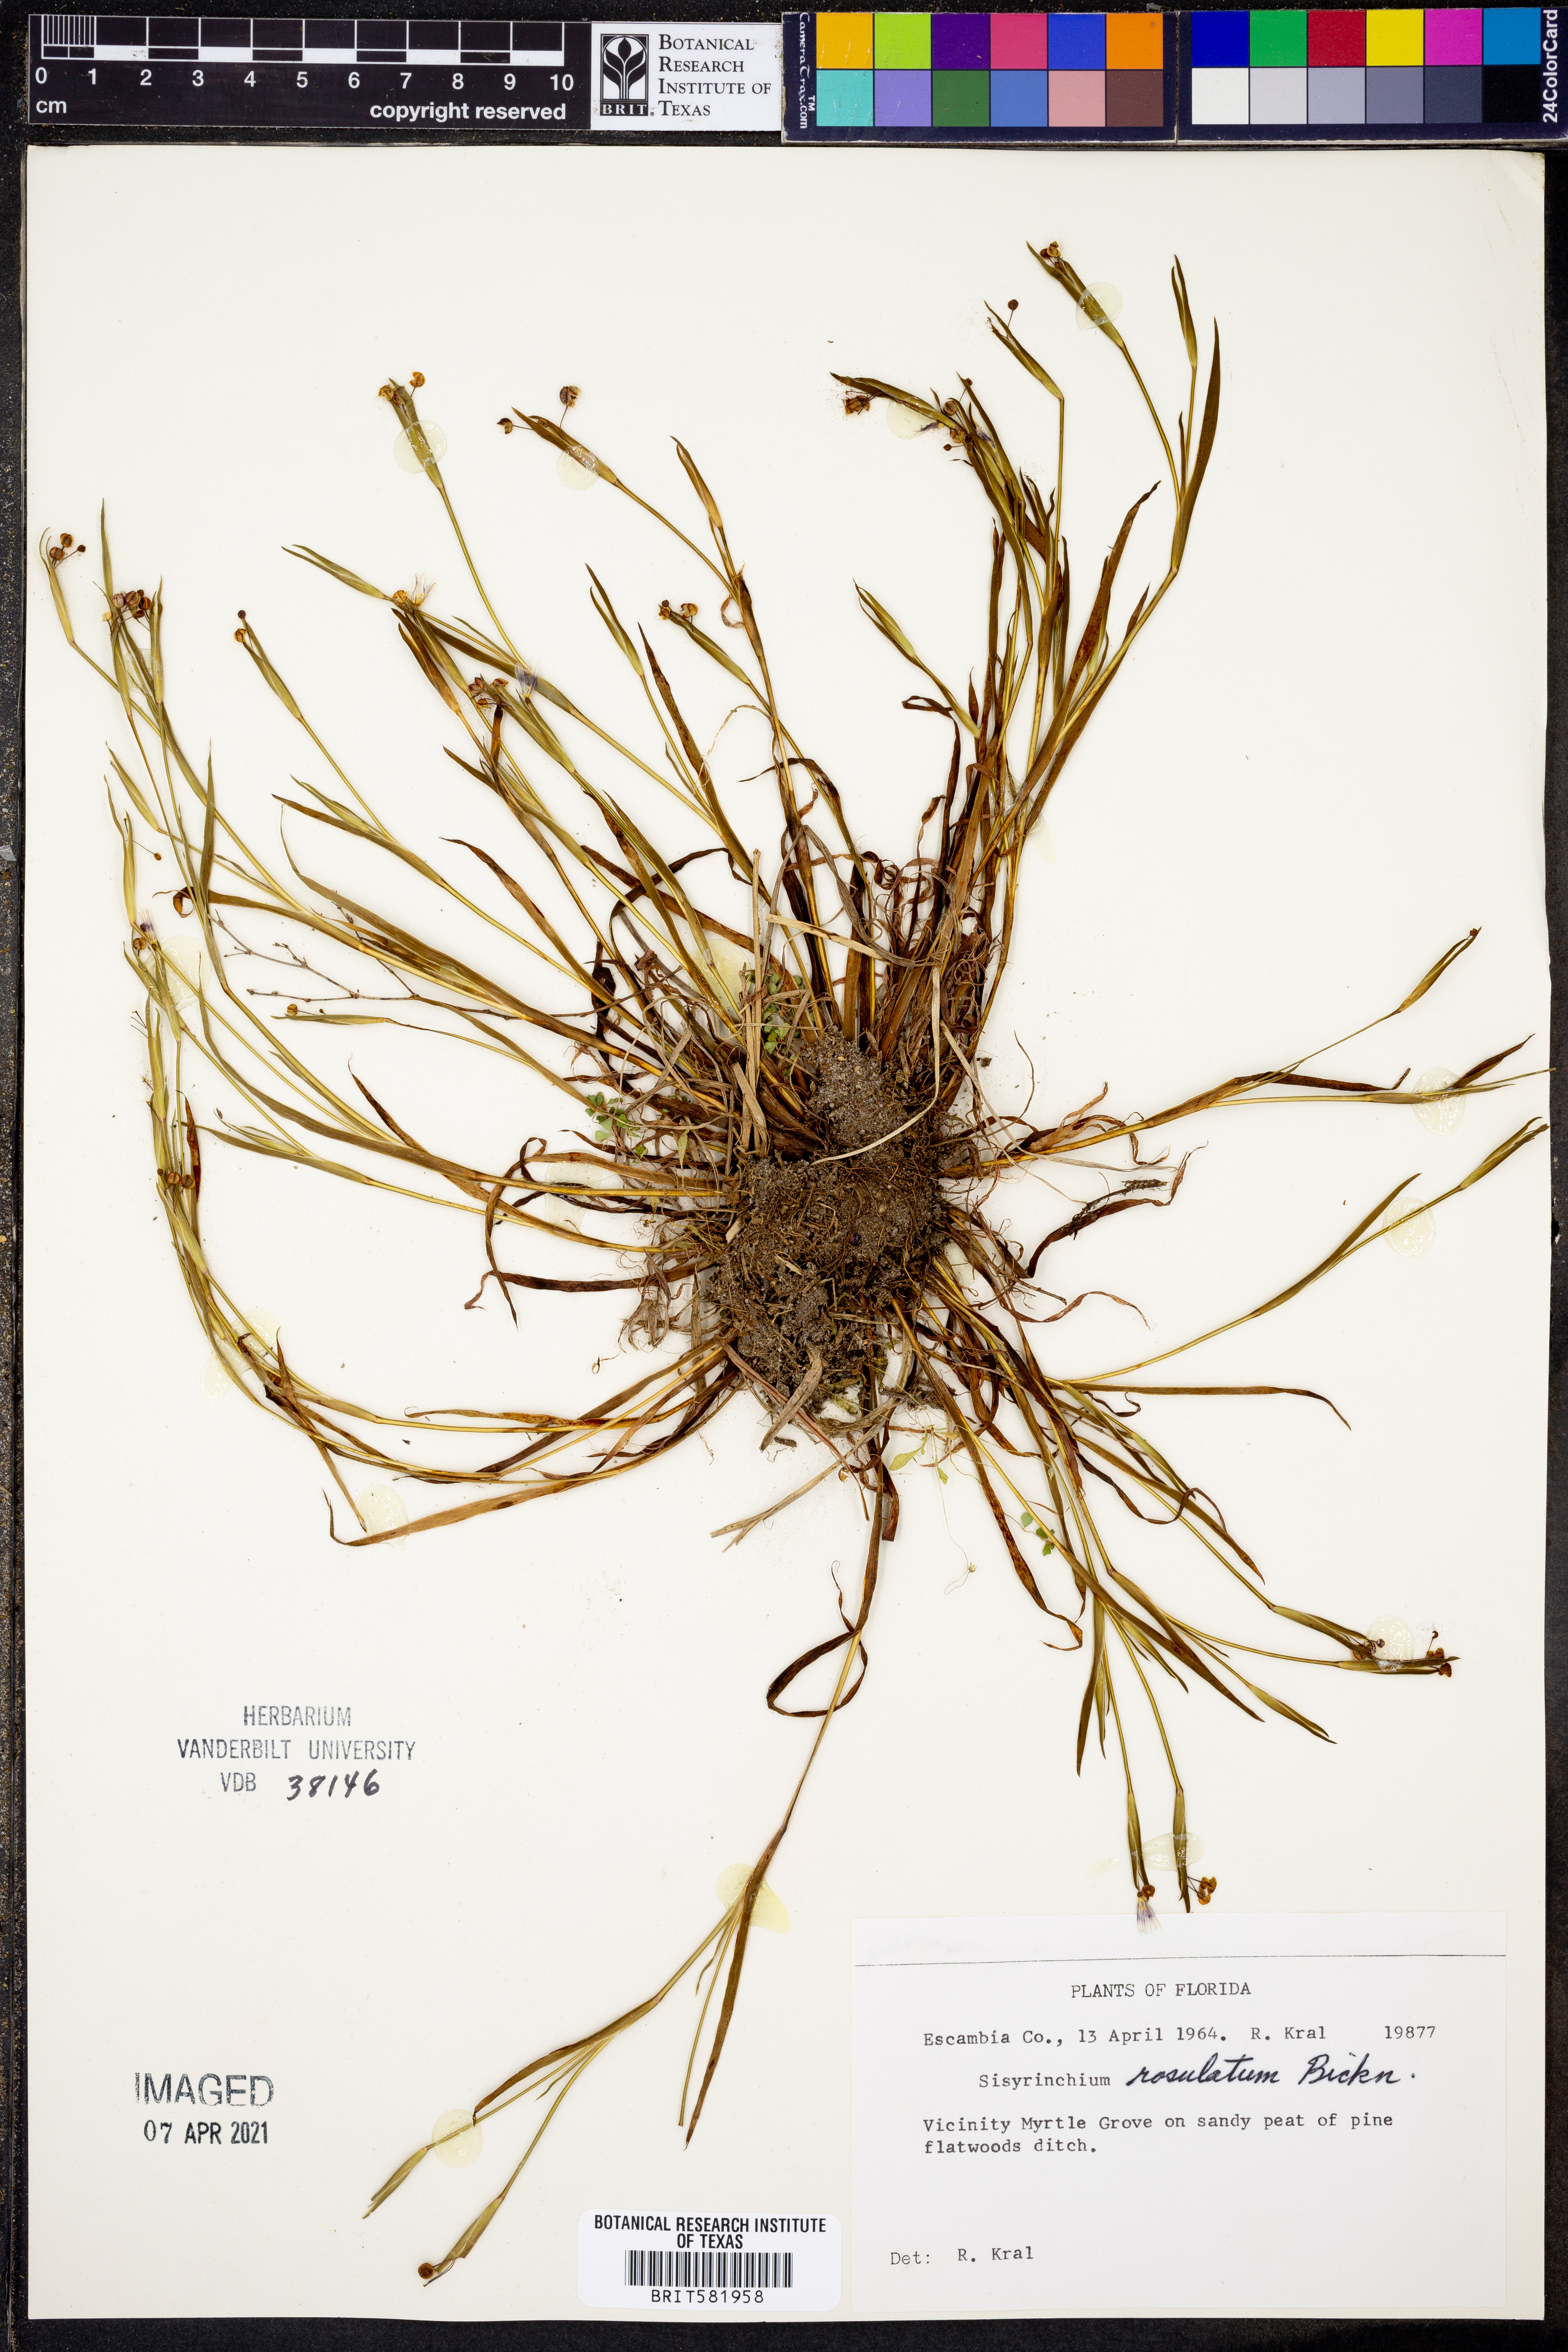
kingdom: Plantae
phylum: Tracheophyta
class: Liliopsida
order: Asparagales
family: Iridaceae
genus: Sisyrinchium
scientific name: Sisyrinchium rosulatum
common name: Annual blue-eyed grass
